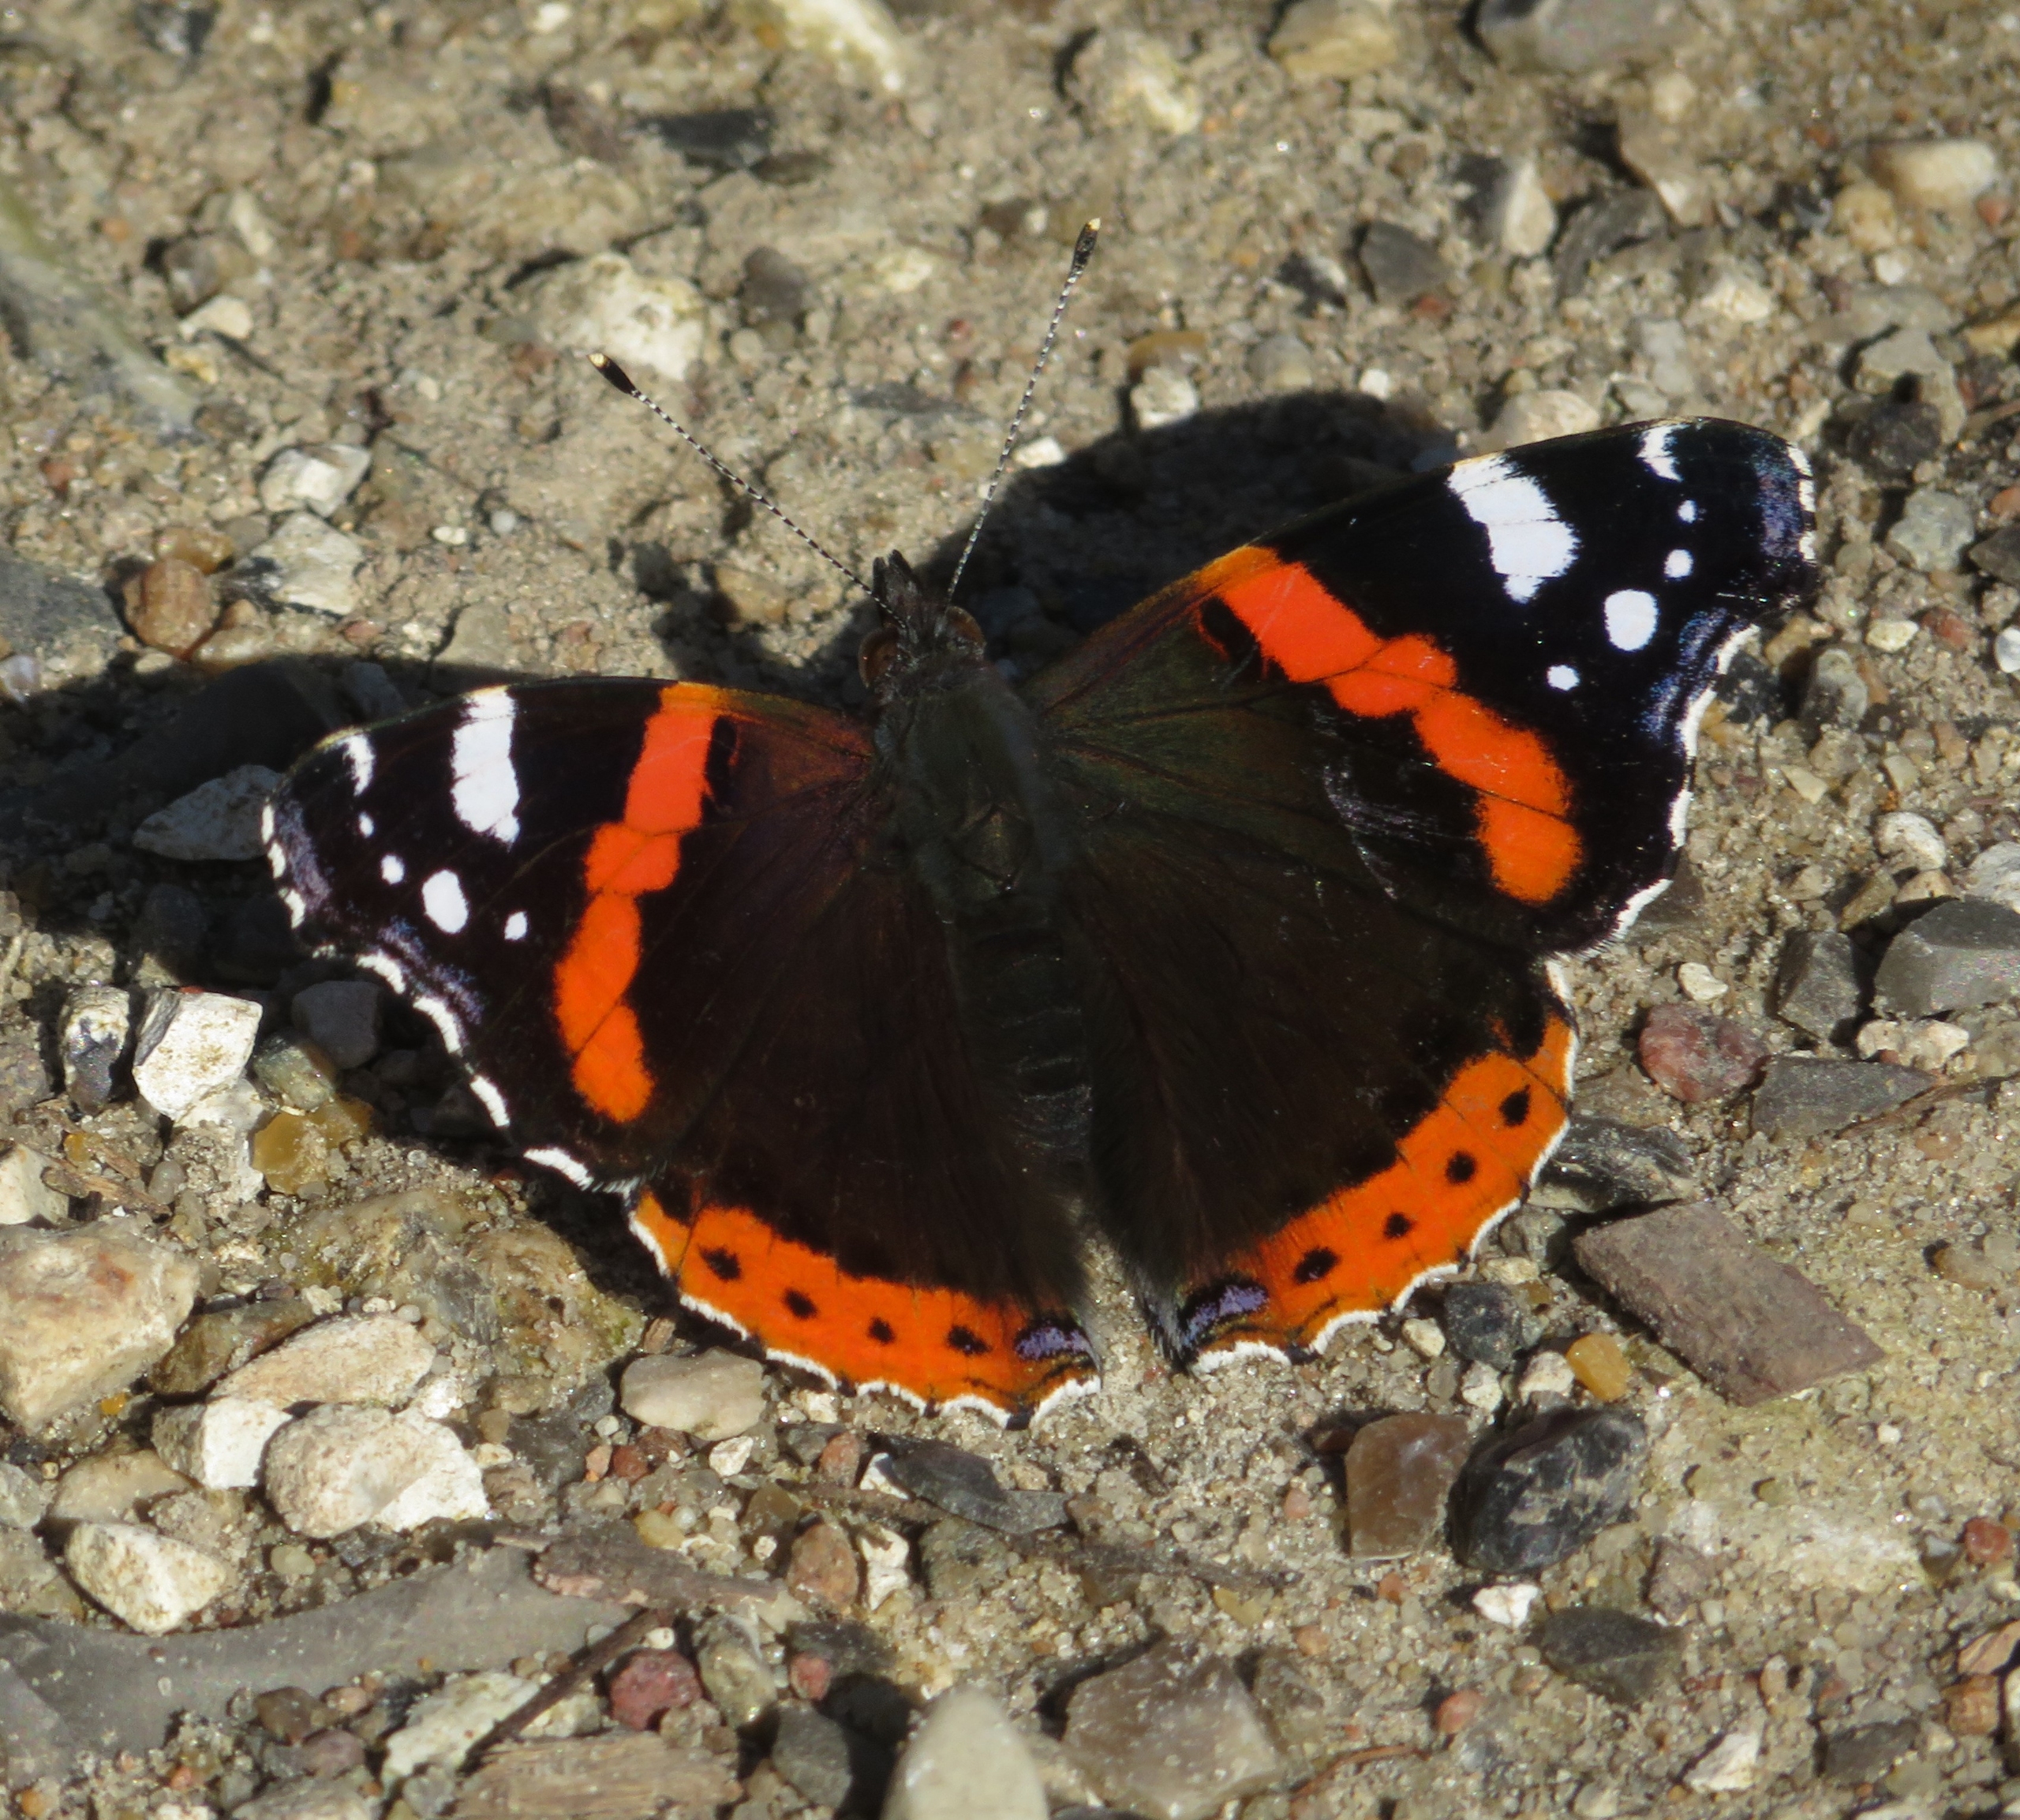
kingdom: Animalia
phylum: Arthropoda
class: Insecta
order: Lepidoptera
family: Nymphalidae
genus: Vanessa
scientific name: Vanessa atalanta
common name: Admiral
